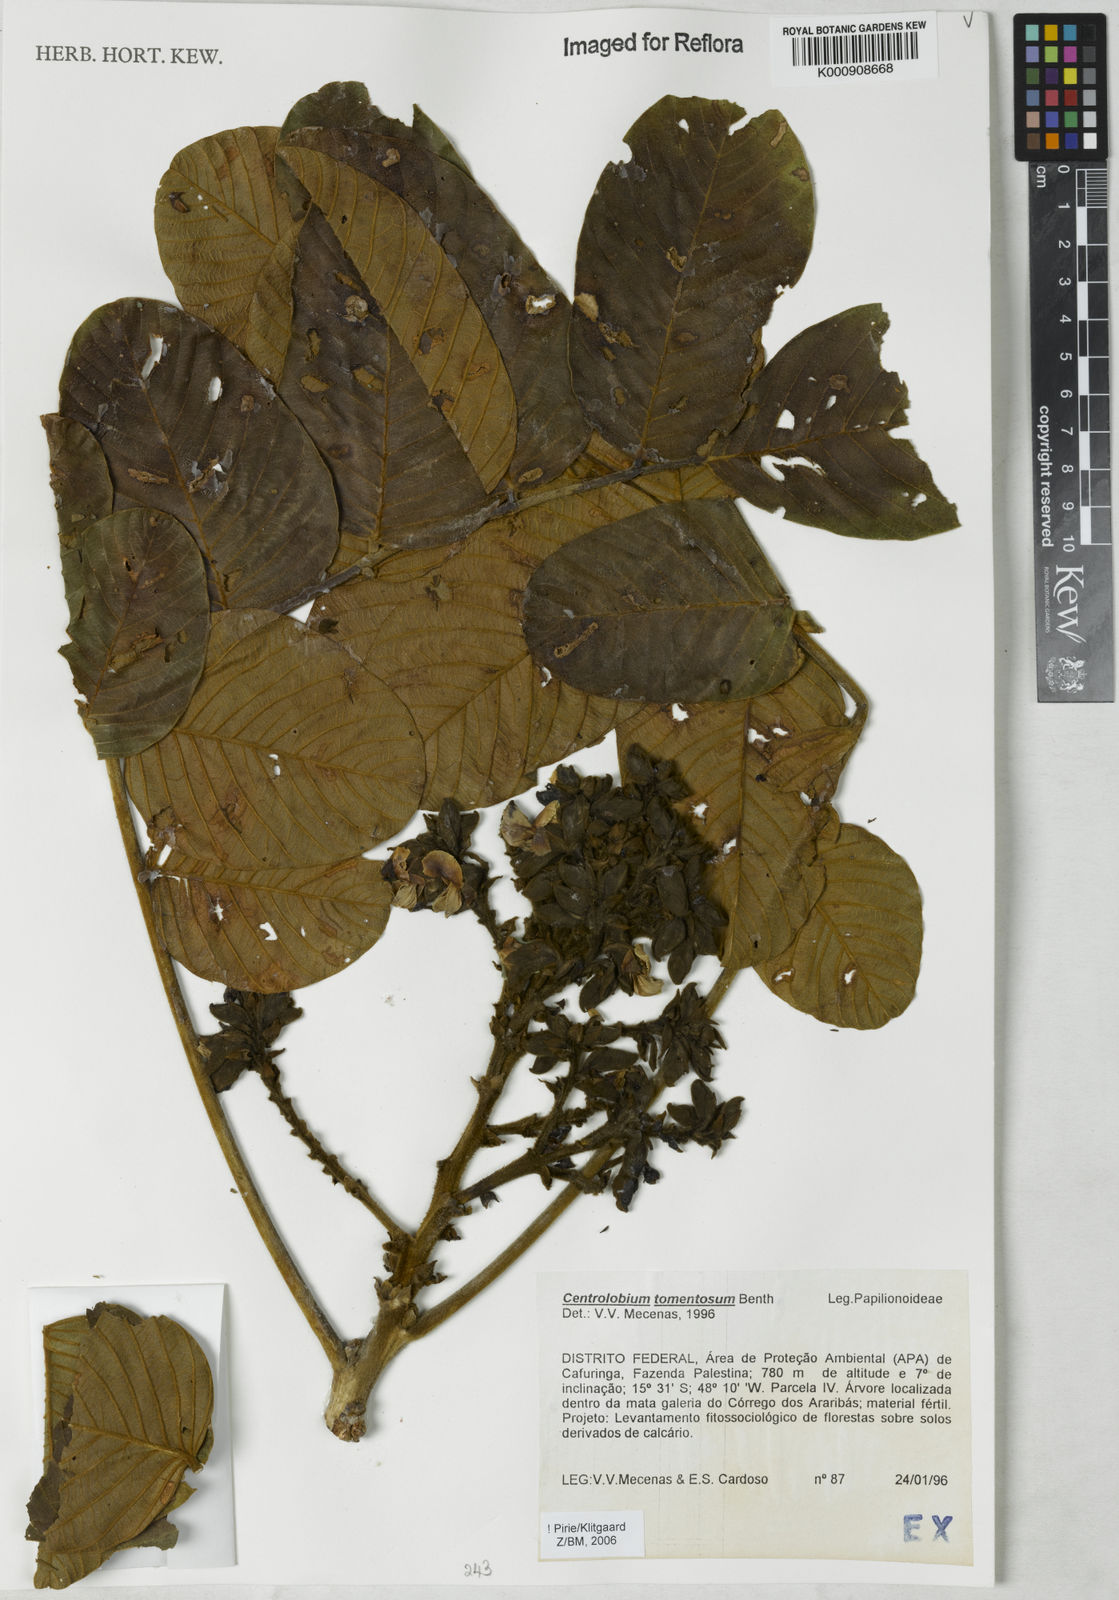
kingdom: Plantae
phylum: Tracheophyta
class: Magnoliopsida
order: Fabales
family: Fabaceae
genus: Centrolobium
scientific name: Centrolobium tomentosum
